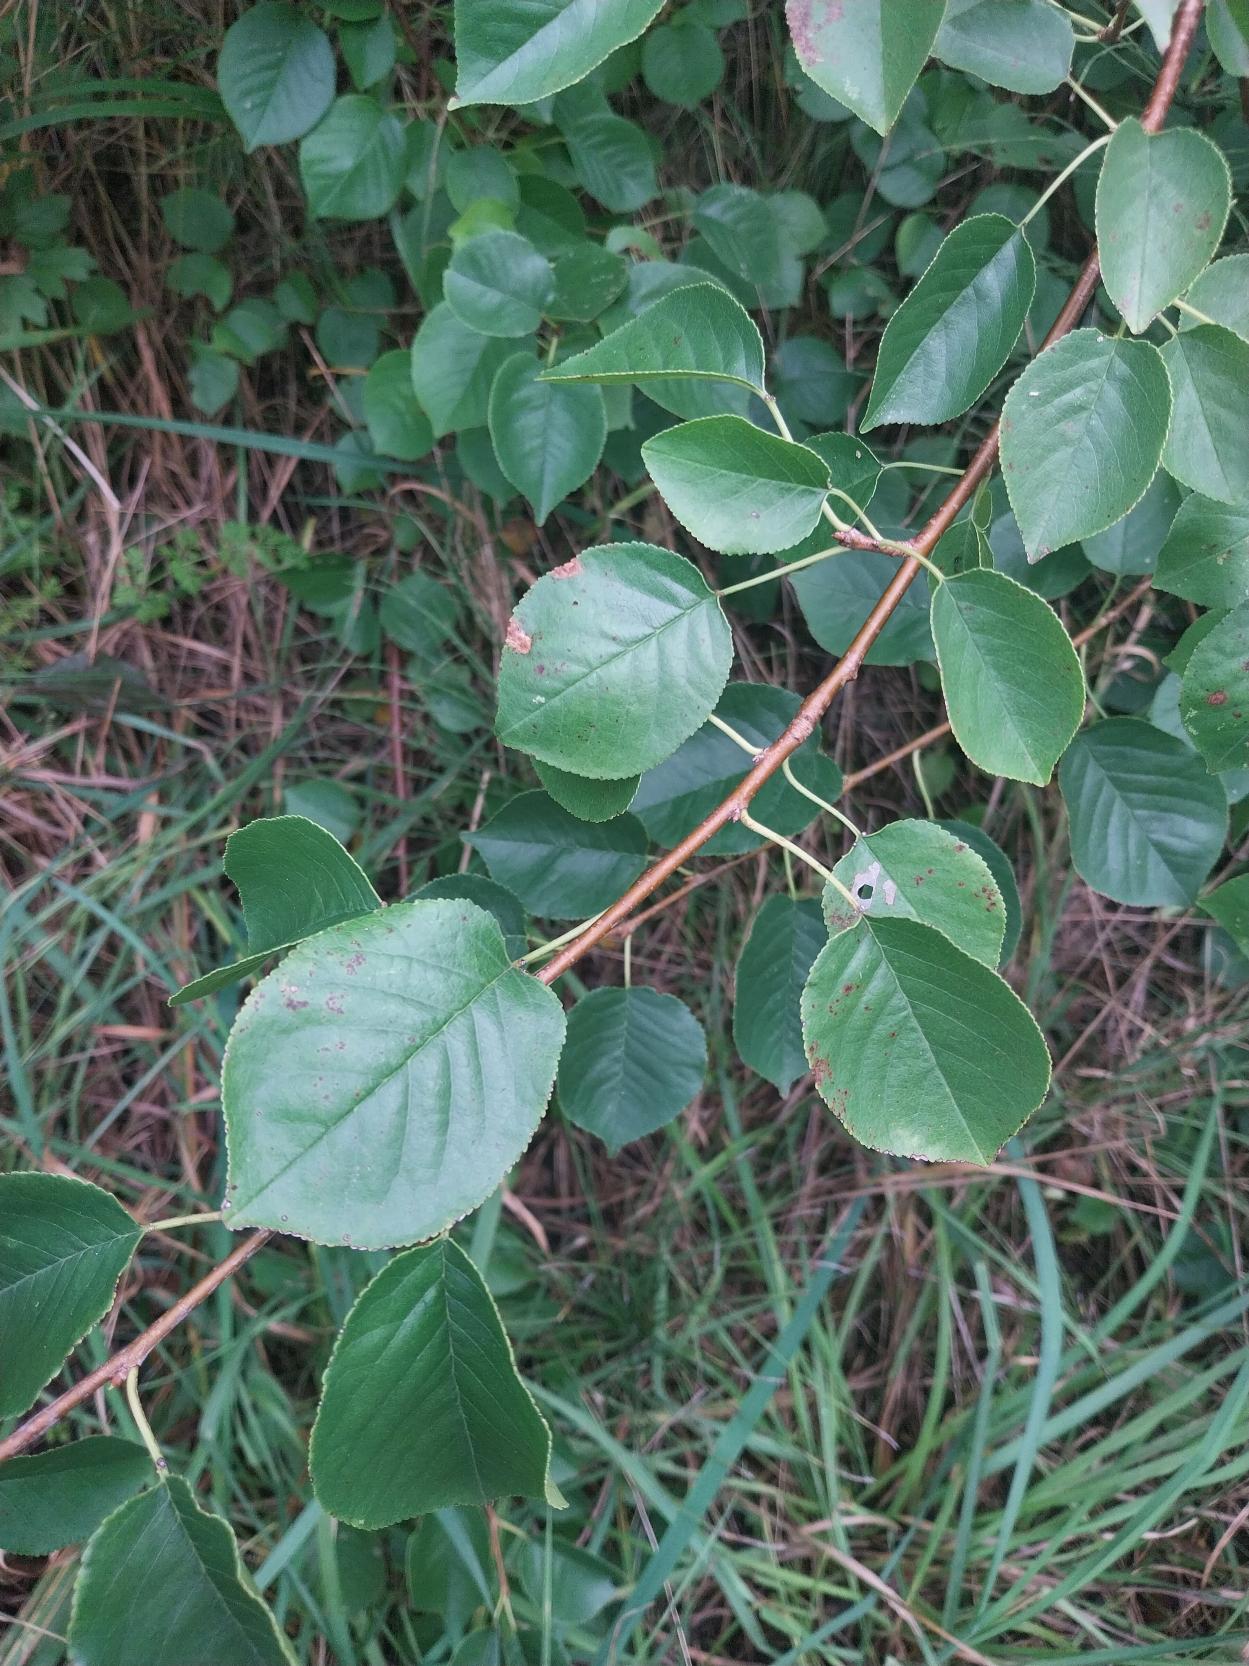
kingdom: Plantae
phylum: Tracheophyta
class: Magnoliopsida
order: Rosales
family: Rosaceae
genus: Prunus
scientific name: Prunus mahaleb
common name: Weichsel
